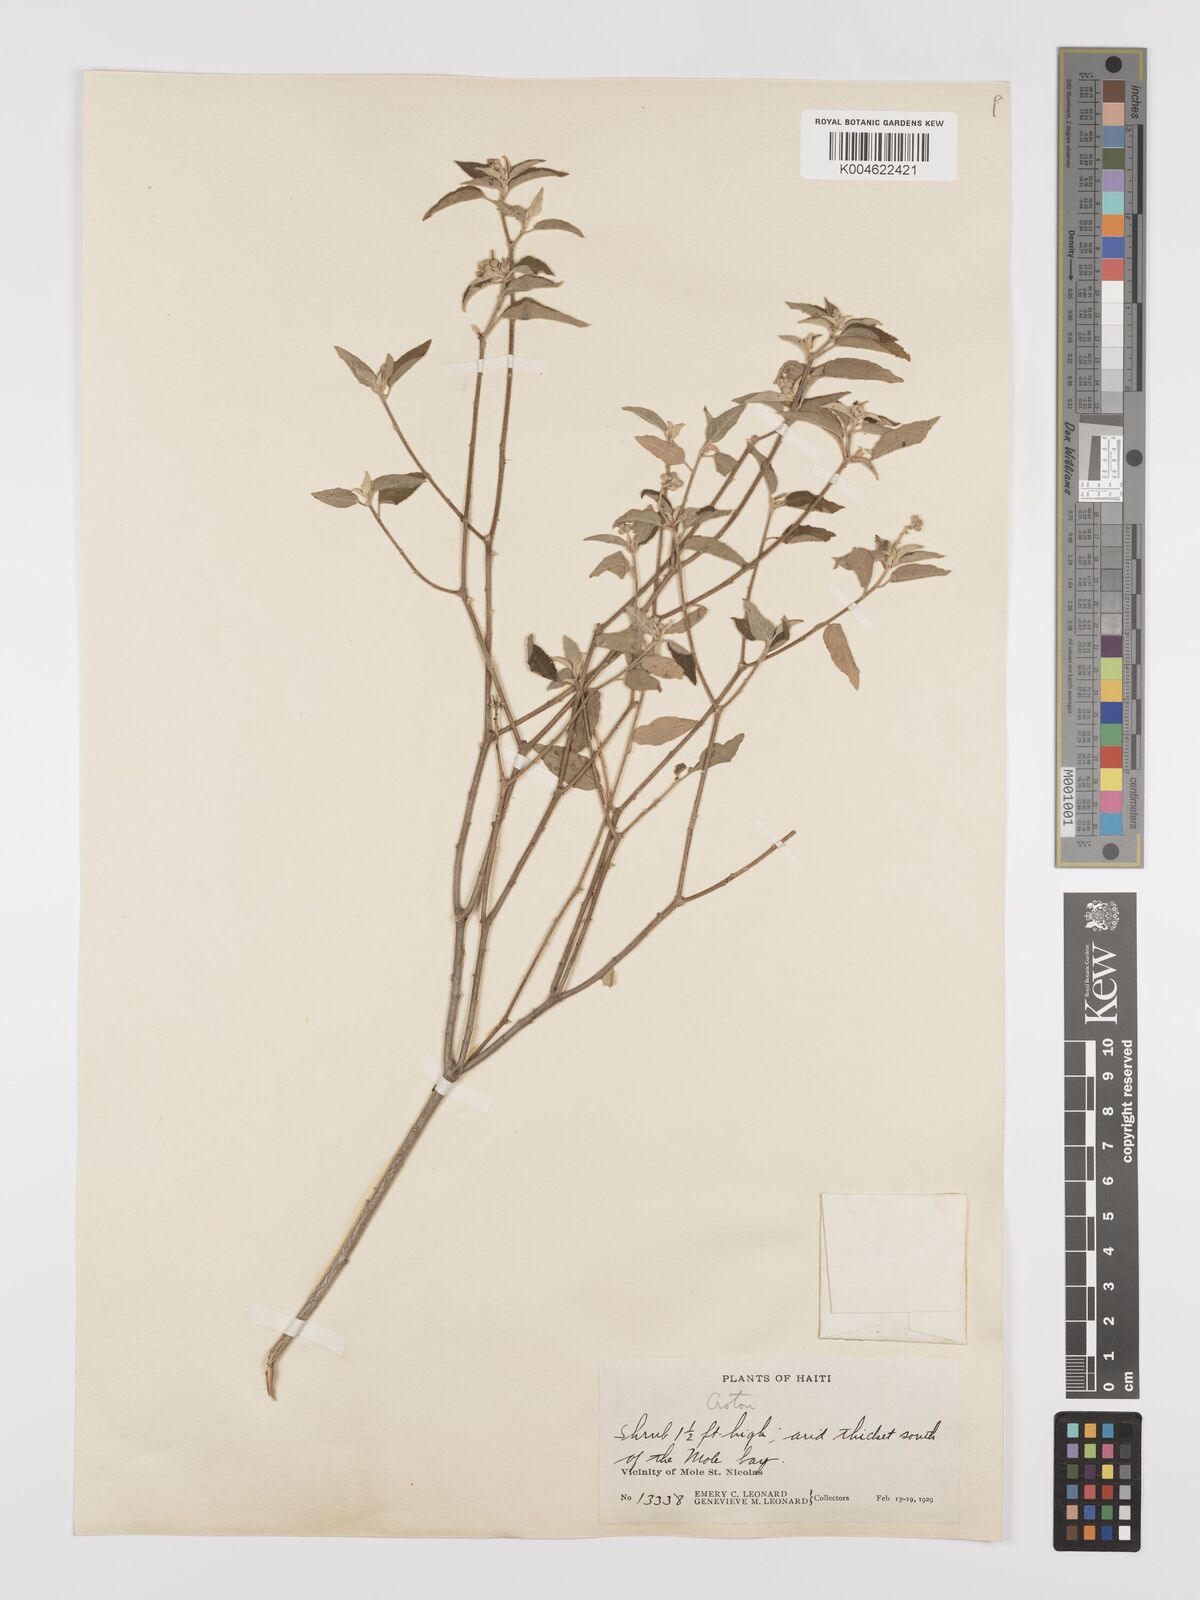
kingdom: Plantae
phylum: Tracheophyta
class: Magnoliopsida
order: Malpighiales
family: Euphorbiaceae
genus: Croton
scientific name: Croton
